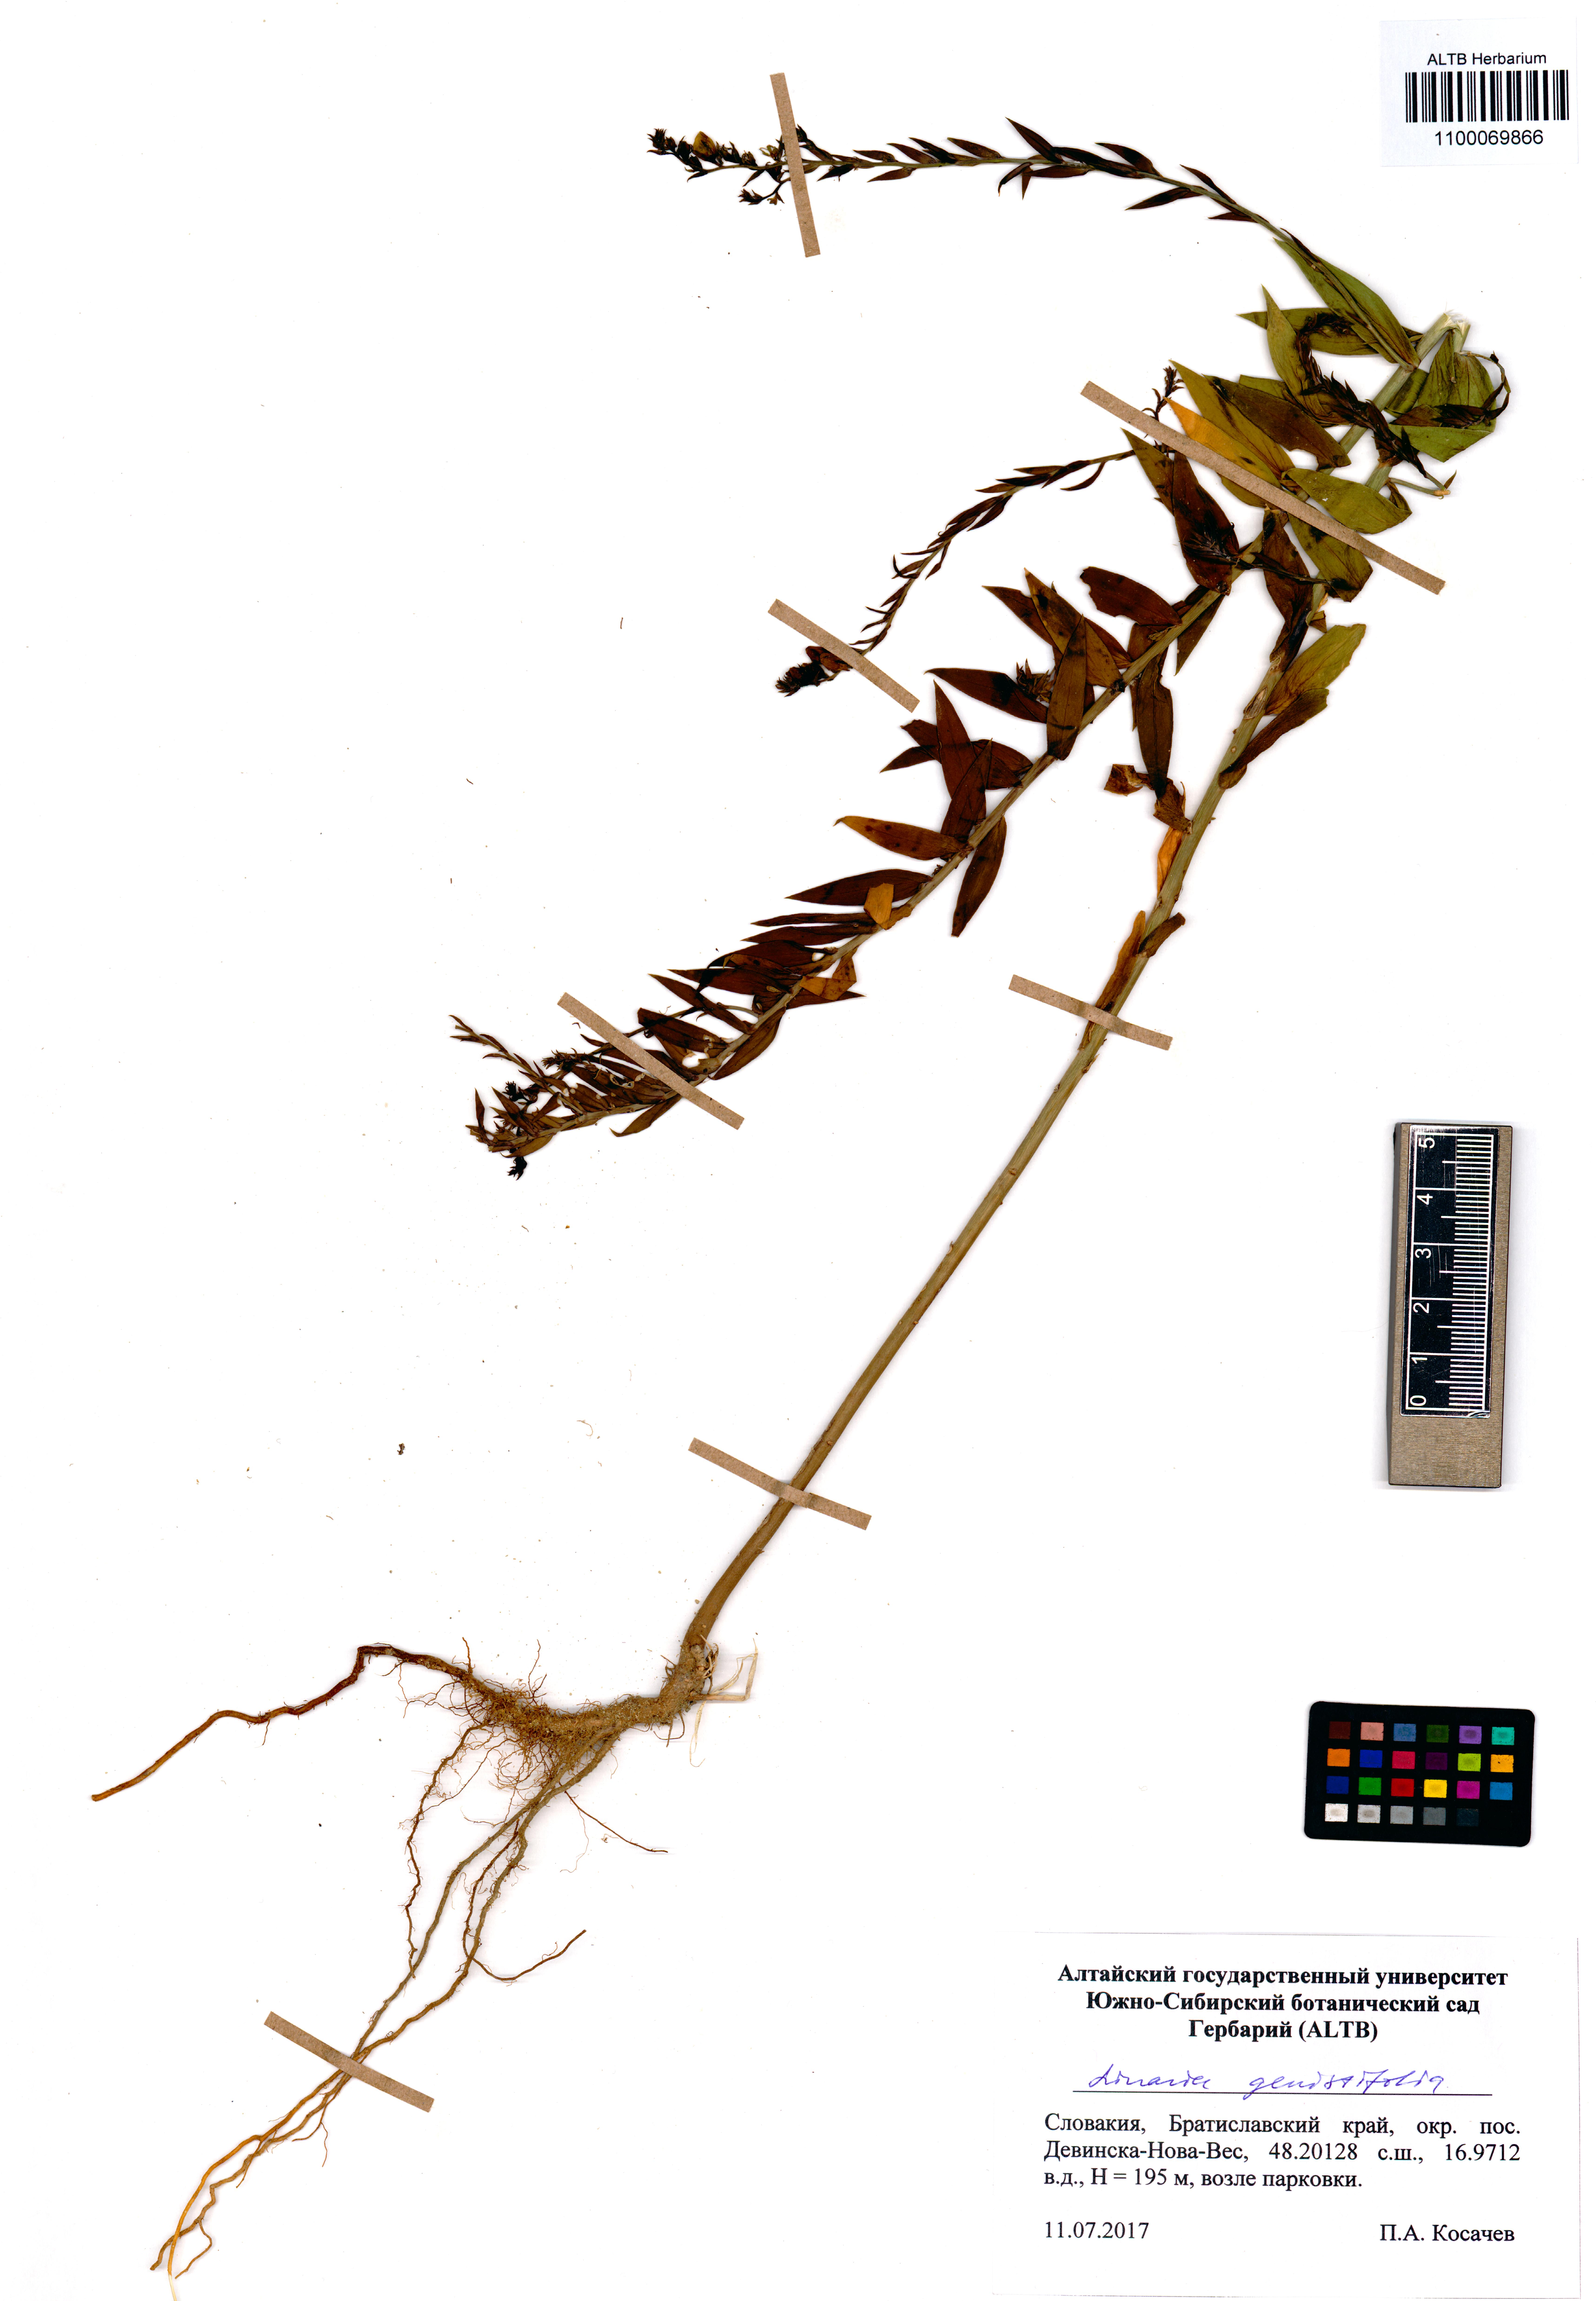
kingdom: Plantae
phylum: Tracheophyta
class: Magnoliopsida
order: Lamiales
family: Plantaginaceae
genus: Linaria
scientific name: Linaria genistifolia
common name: Broomleaf toadflax
